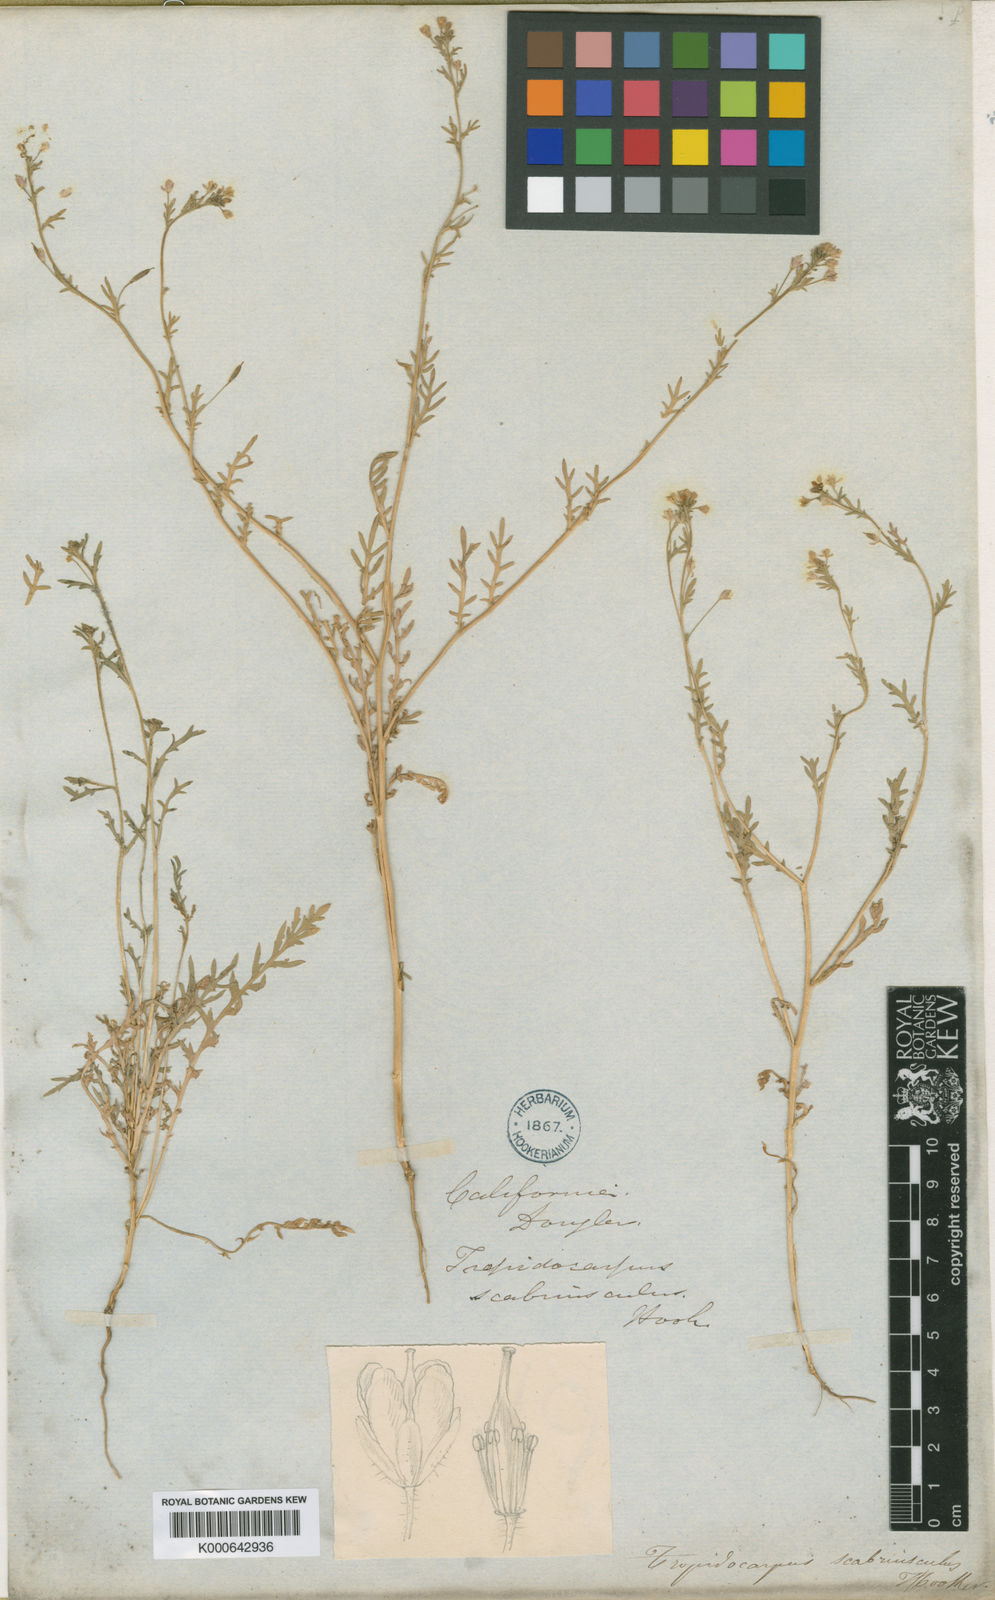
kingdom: Plantae
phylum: Tracheophyta
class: Magnoliopsida
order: Brassicales
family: Brassicaceae
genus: Tropidocarpum
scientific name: Tropidocarpum gracile
